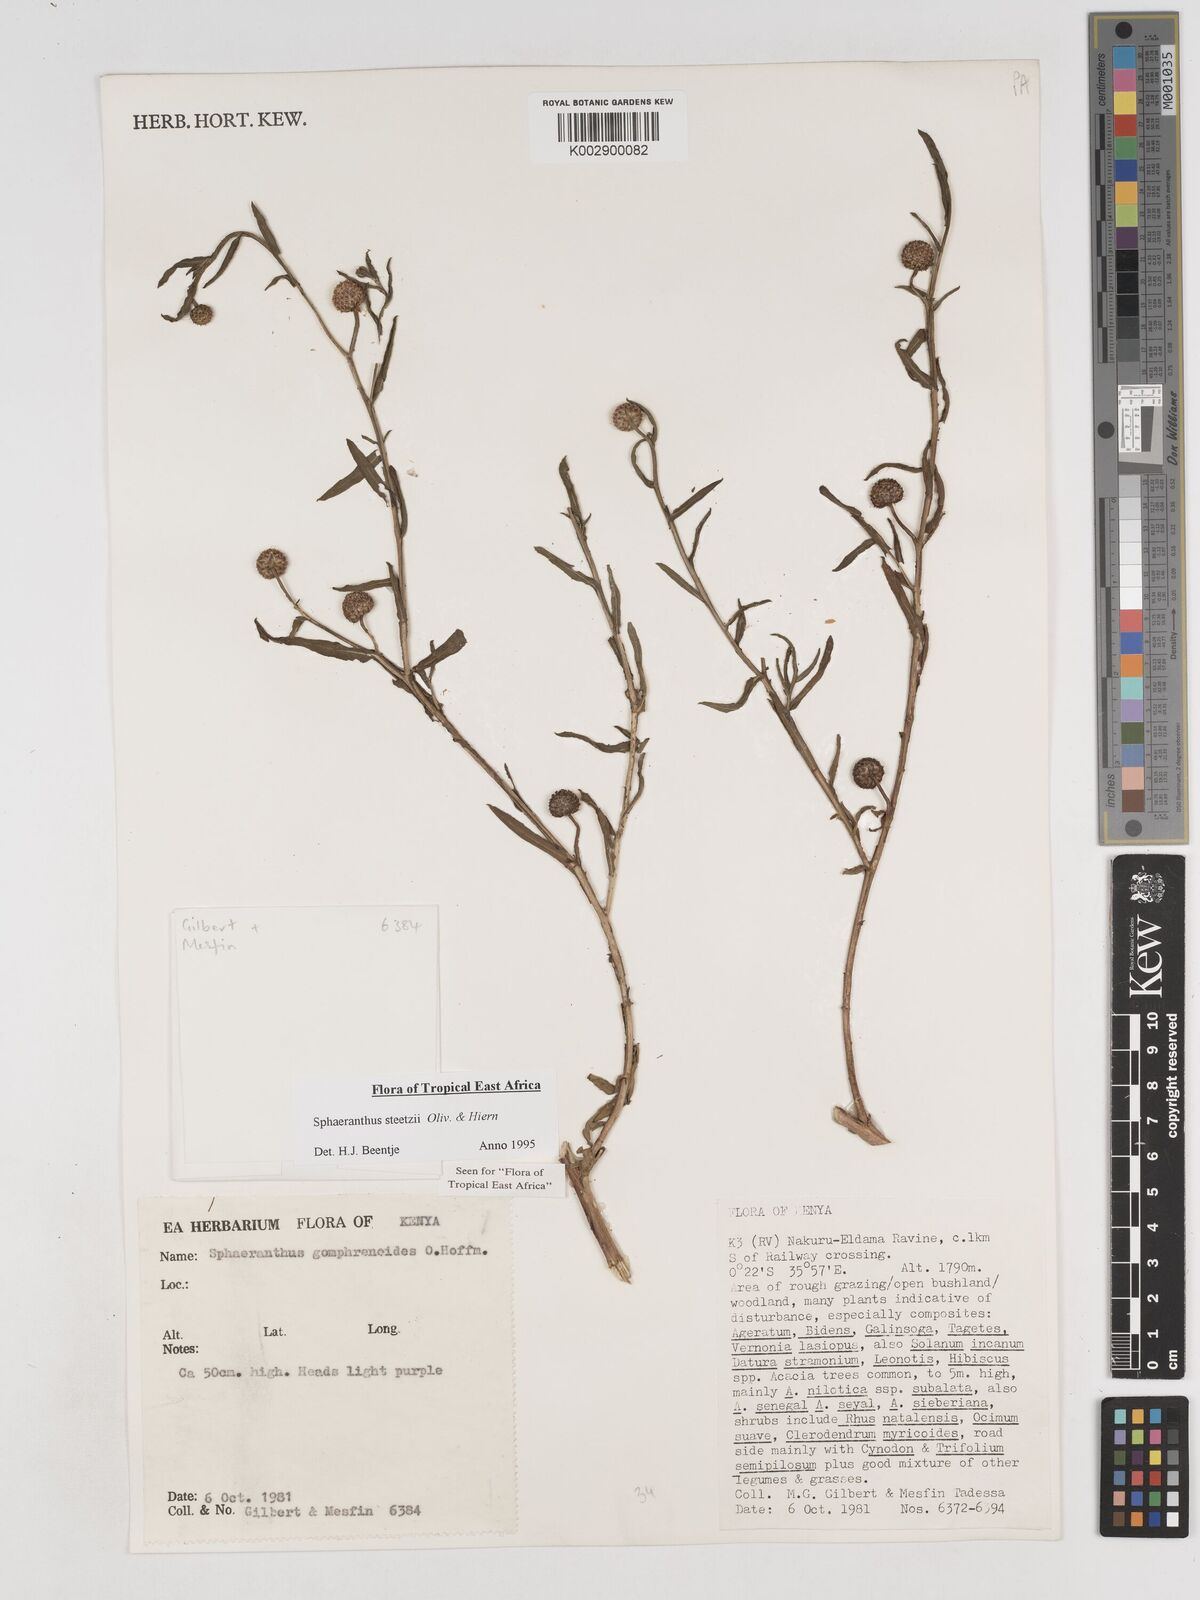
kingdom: Plantae
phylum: Tracheophyta
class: Magnoliopsida
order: Asterales
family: Asteraceae
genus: Sphaeranthus
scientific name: Sphaeranthus steetzii
